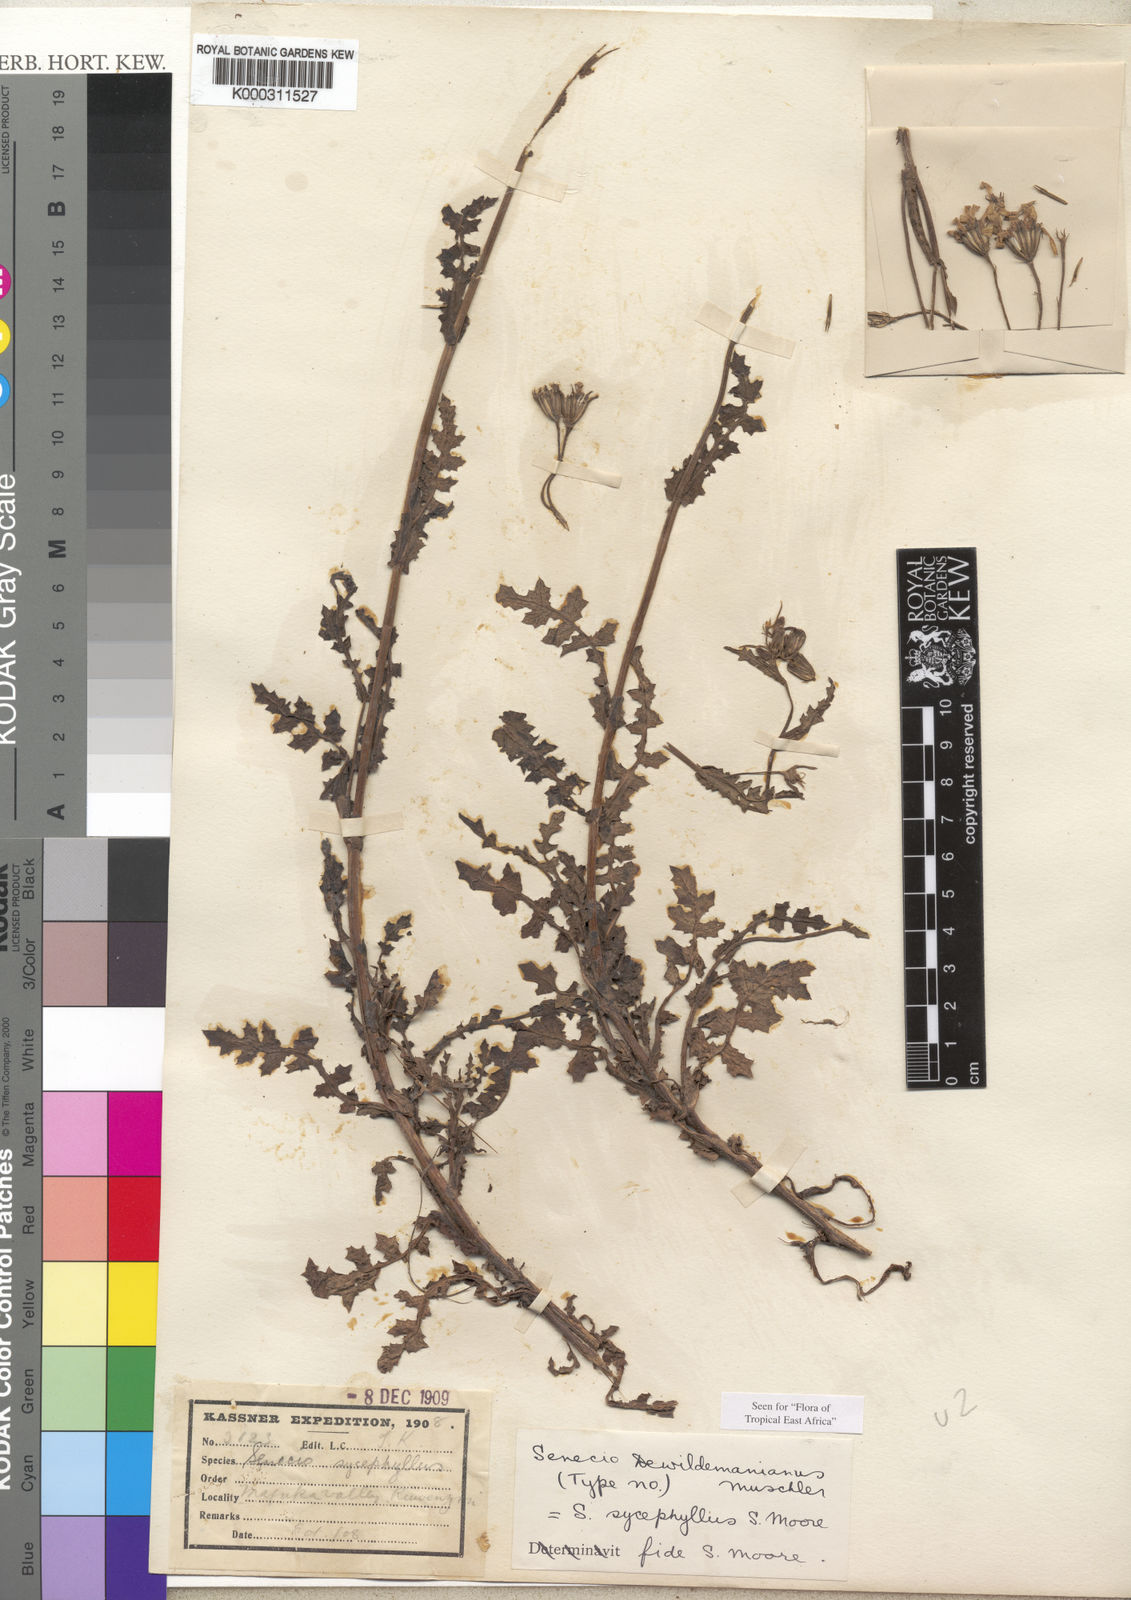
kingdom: Plantae
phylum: Tracheophyta
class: Magnoliopsida
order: Asterales
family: Asteraceae
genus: Senecio
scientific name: Senecio transmarinus
